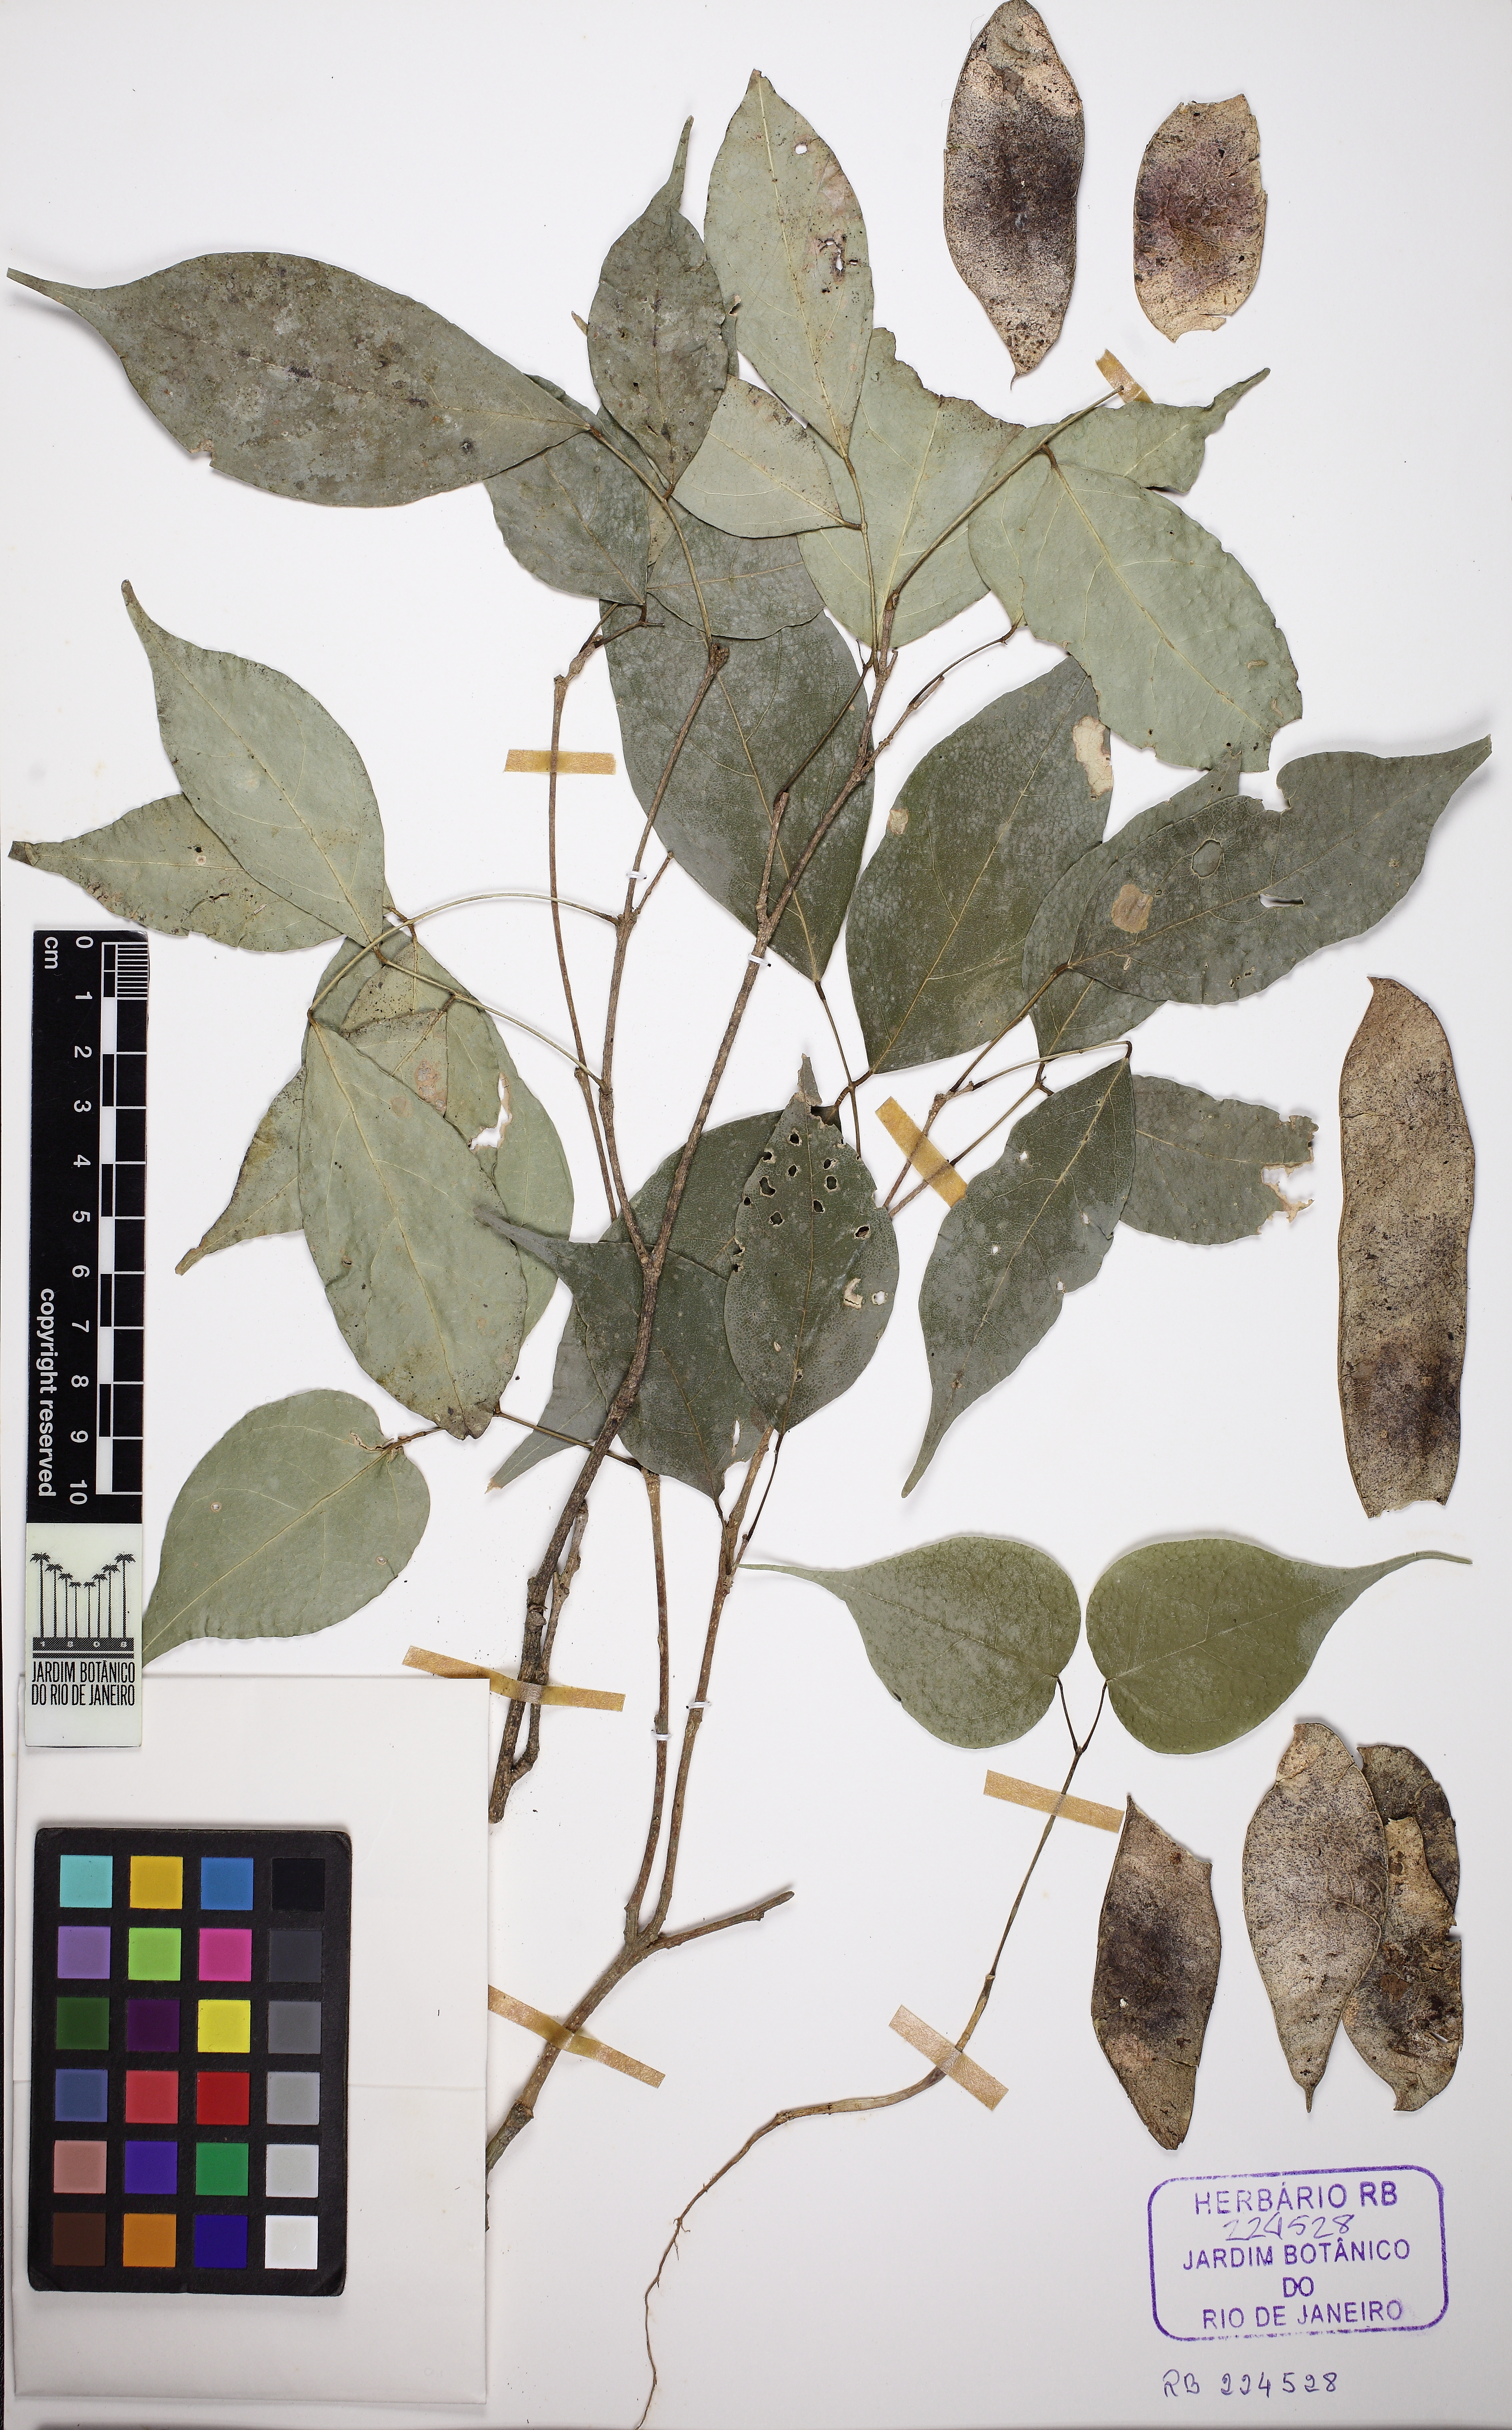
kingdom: Plantae
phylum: Tracheophyta
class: Magnoliopsida
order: Fabales
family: Fabaceae
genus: Muellera
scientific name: Muellera filipes
